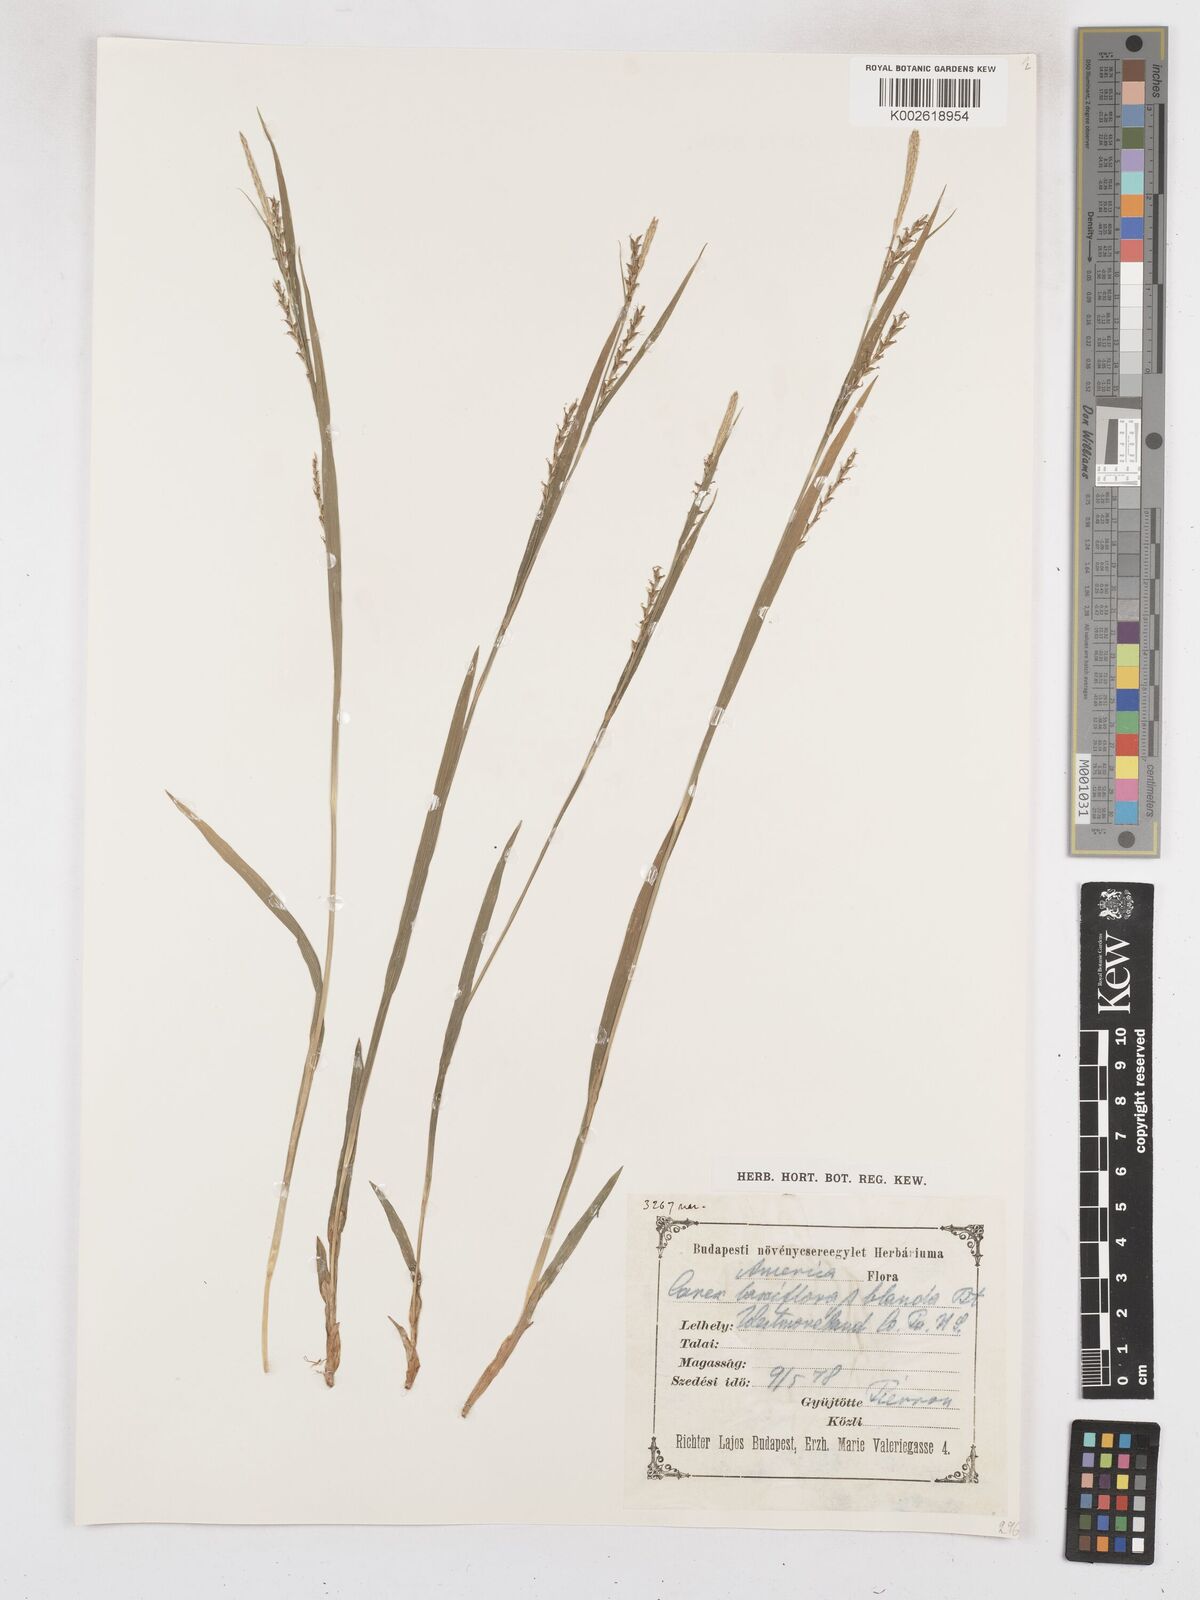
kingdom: Plantae
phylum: Tracheophyta
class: Liliopsida
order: Poales
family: Cyperaceae
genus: Carex
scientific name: Carex laxiflora
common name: Beech wood sedge
